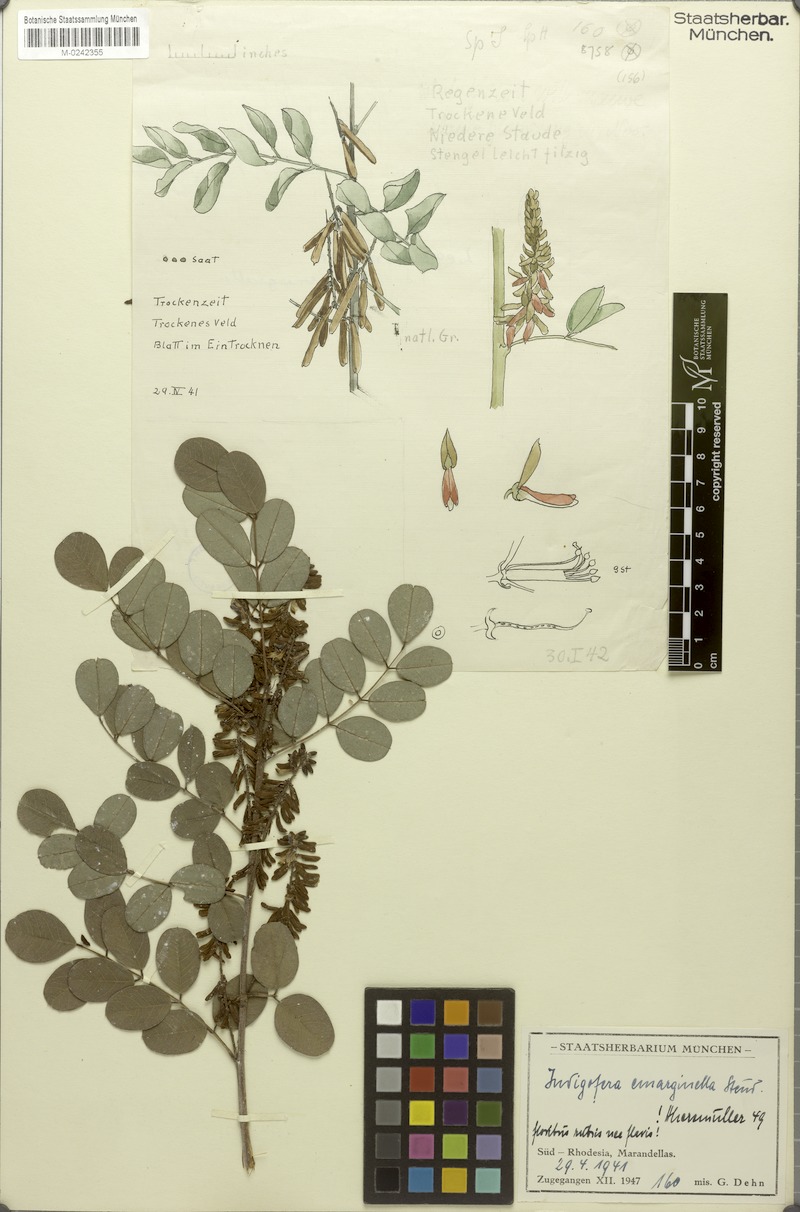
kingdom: Plantae
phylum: Tracheophyta
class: Magnoliopsida
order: Fabales
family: Fabaceae
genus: Indigofera
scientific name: Indigofera emarginella
